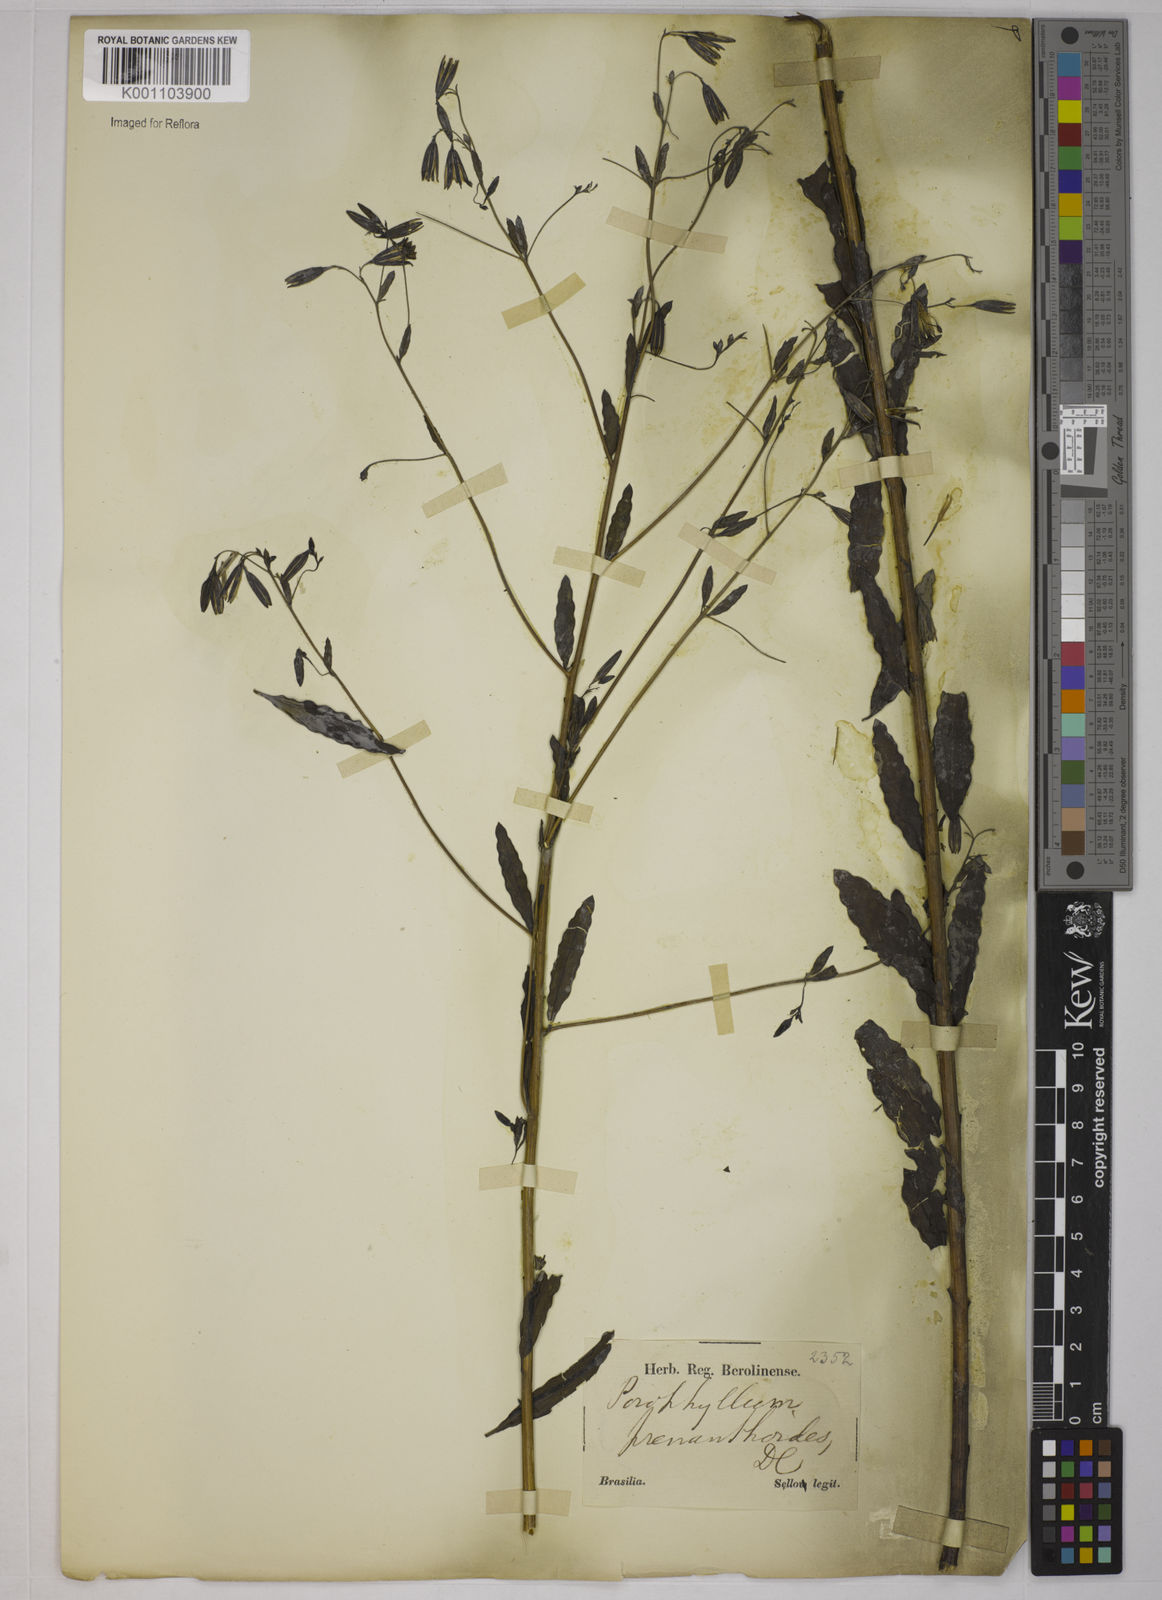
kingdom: Plantae
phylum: Tracheophyta
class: Magnoliopsida
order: Asterales
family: Asteraceae
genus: Porophyllum
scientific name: Porophyllum obscurum
